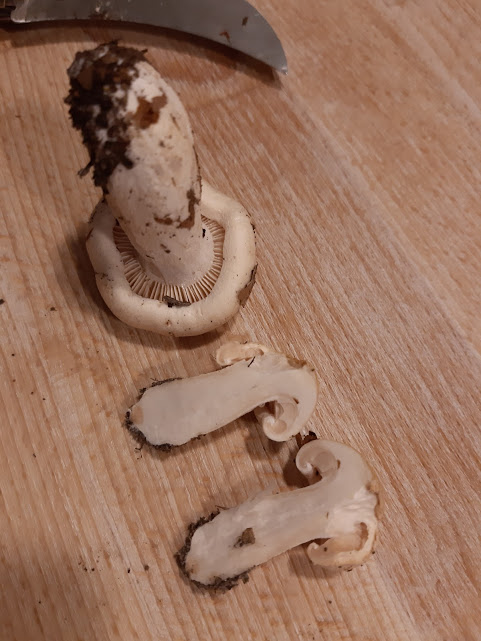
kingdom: Fungi
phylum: Basidiomycota
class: Agaricomycetes
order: Agaricales
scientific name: Agaricales
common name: champignonordenen
